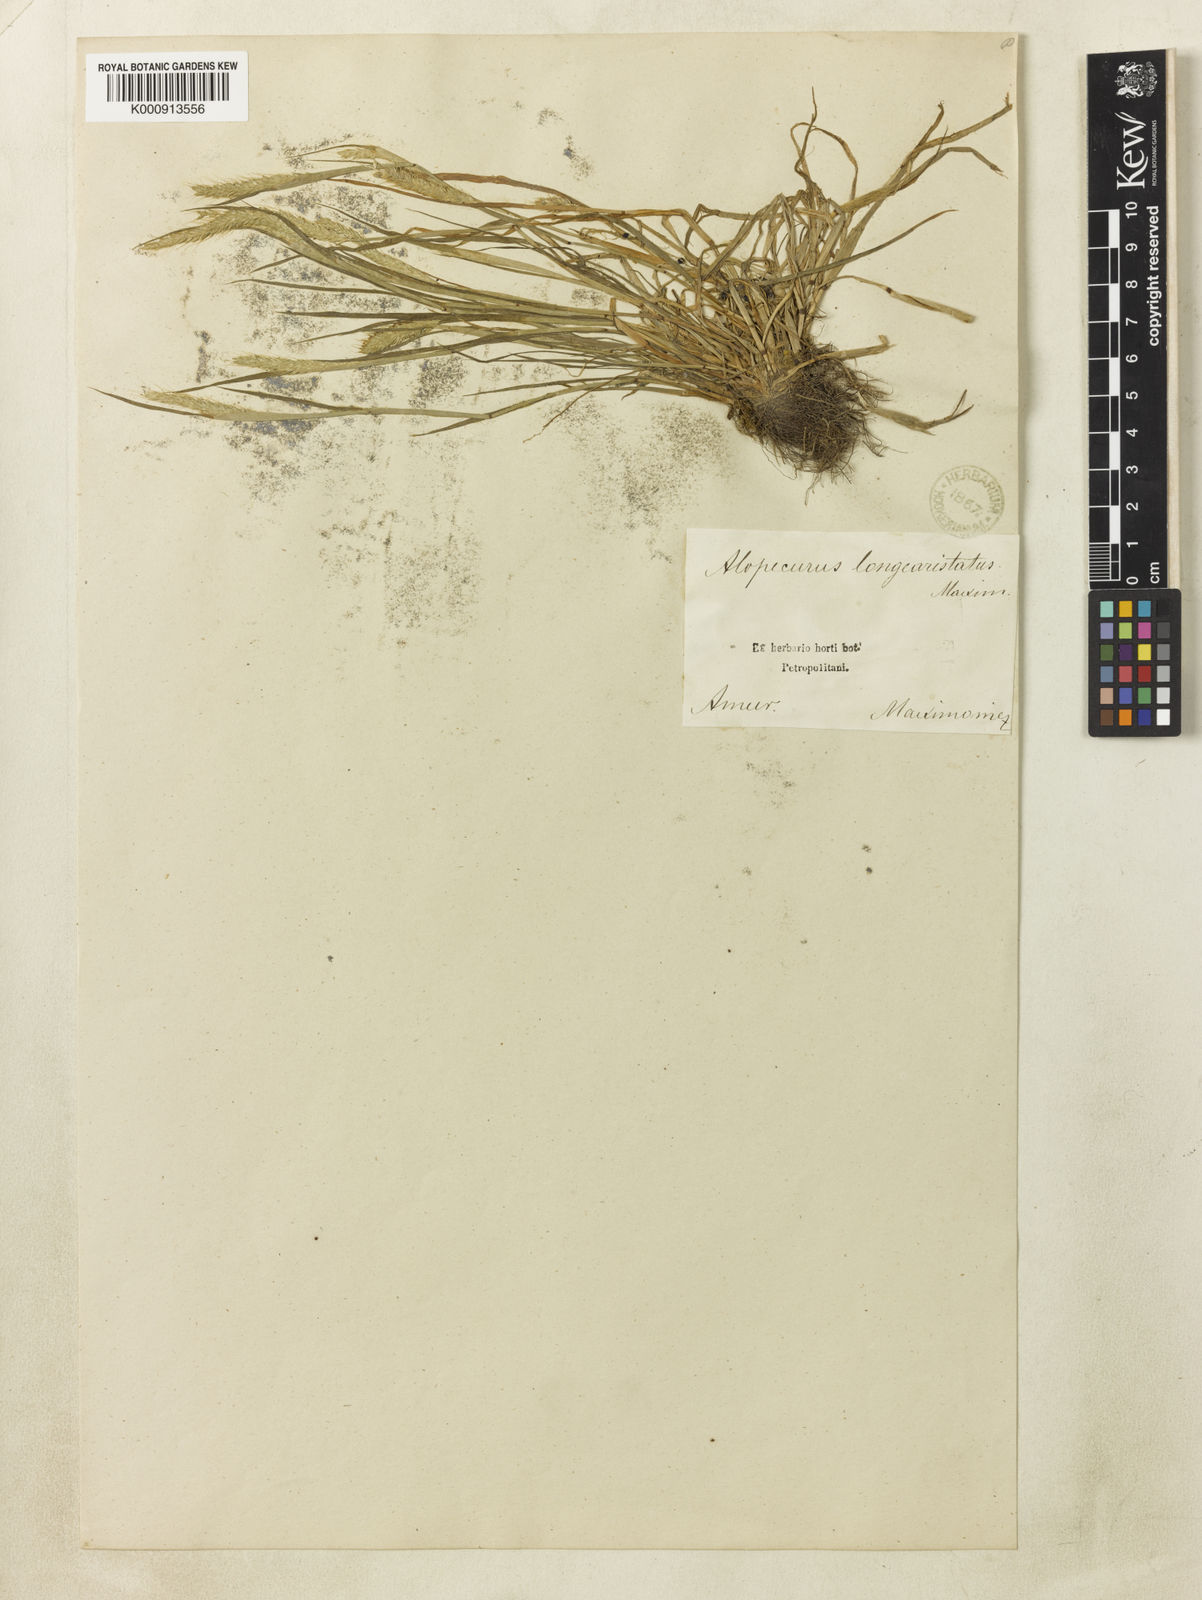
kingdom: Plantae
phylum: Tracheophyta
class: Liliopsida
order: Poales
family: Poaceae
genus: Alopecurus
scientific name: Alopecurus longiaristatus
